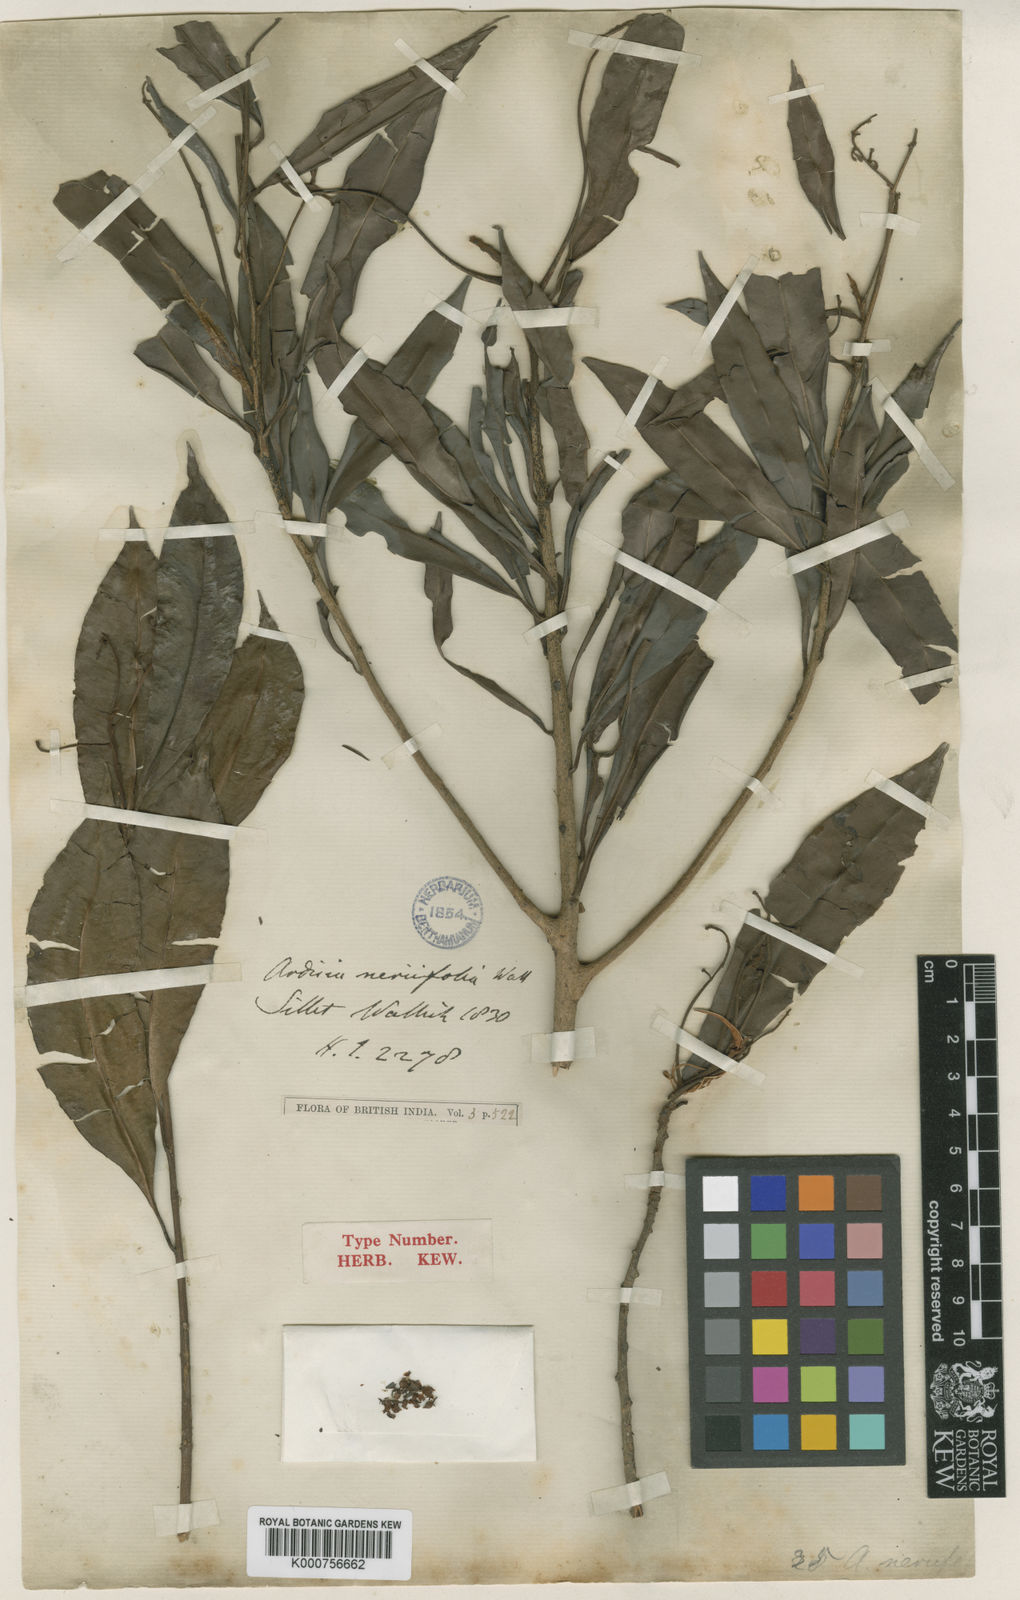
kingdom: Plantae
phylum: Tracheophyta
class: Magnoliopsida
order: Ericales
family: Primulaceae
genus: Ardisia
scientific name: Ardisia floribunda
